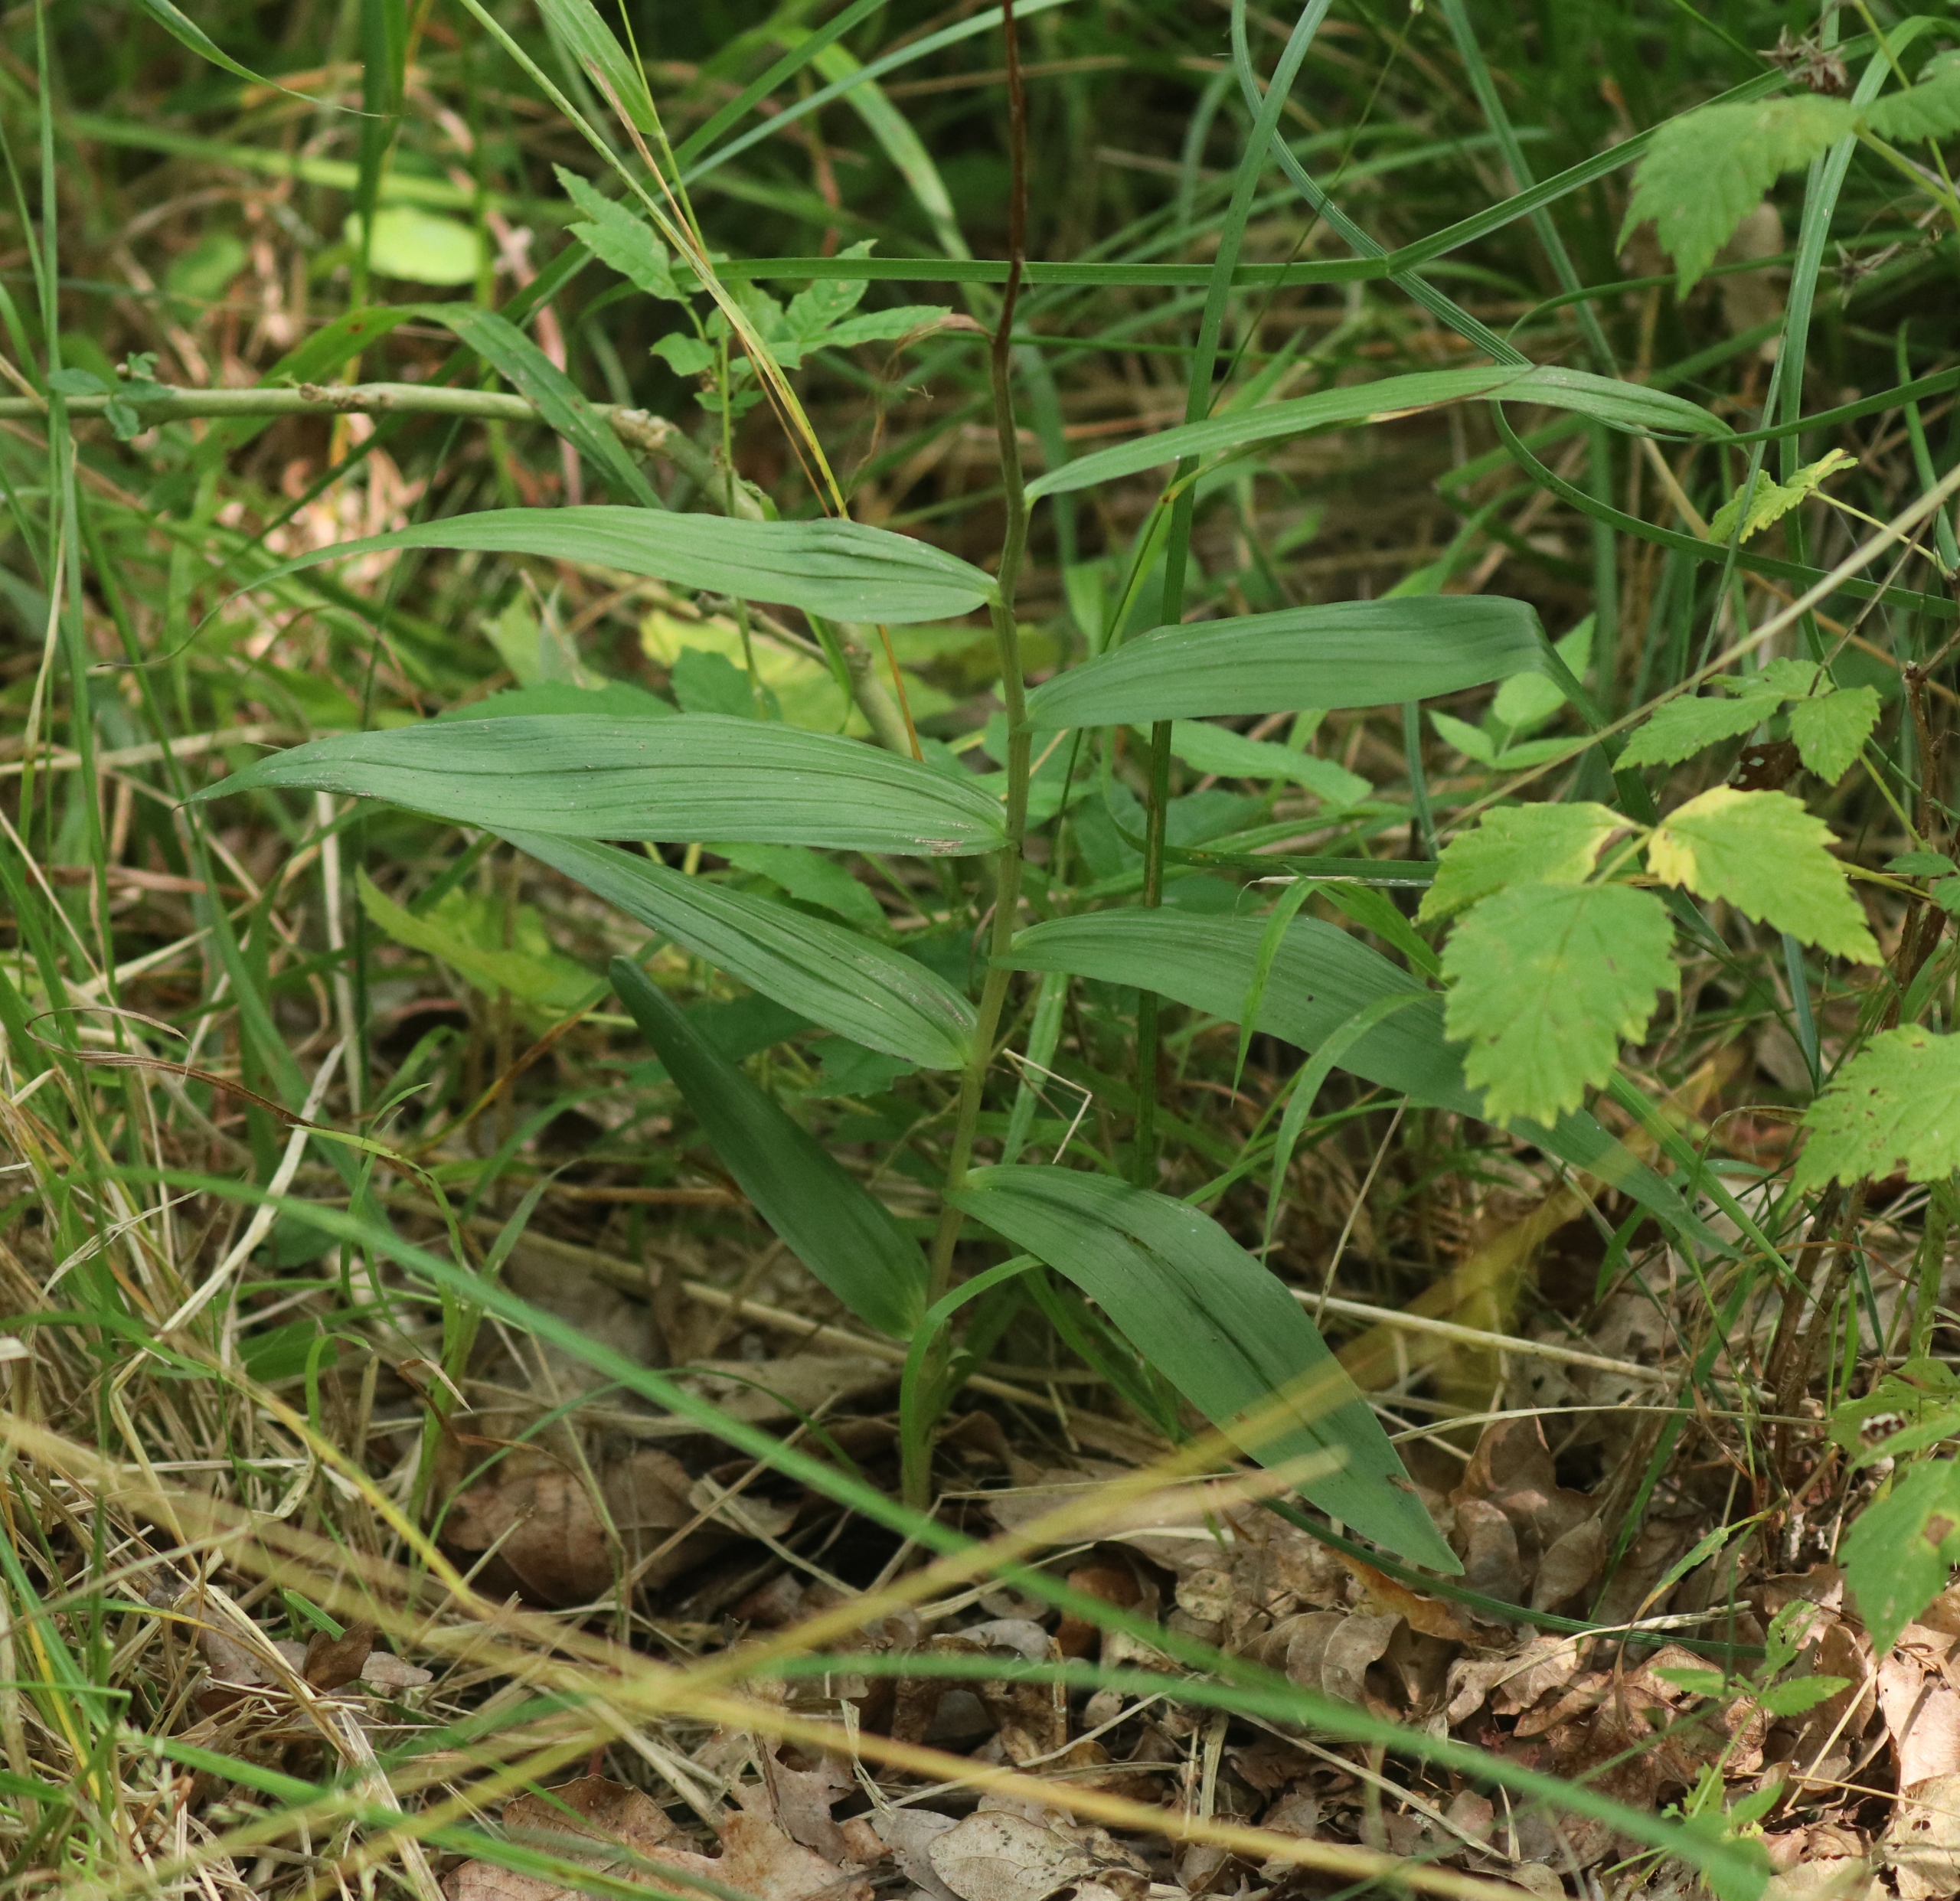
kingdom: Plantae
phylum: Tracheophyta
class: Liliopsida
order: Asparagales
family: Orchidaceae
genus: Cephalanthera
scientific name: Cephalanthera longifolia
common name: Sværd-skovlilje
